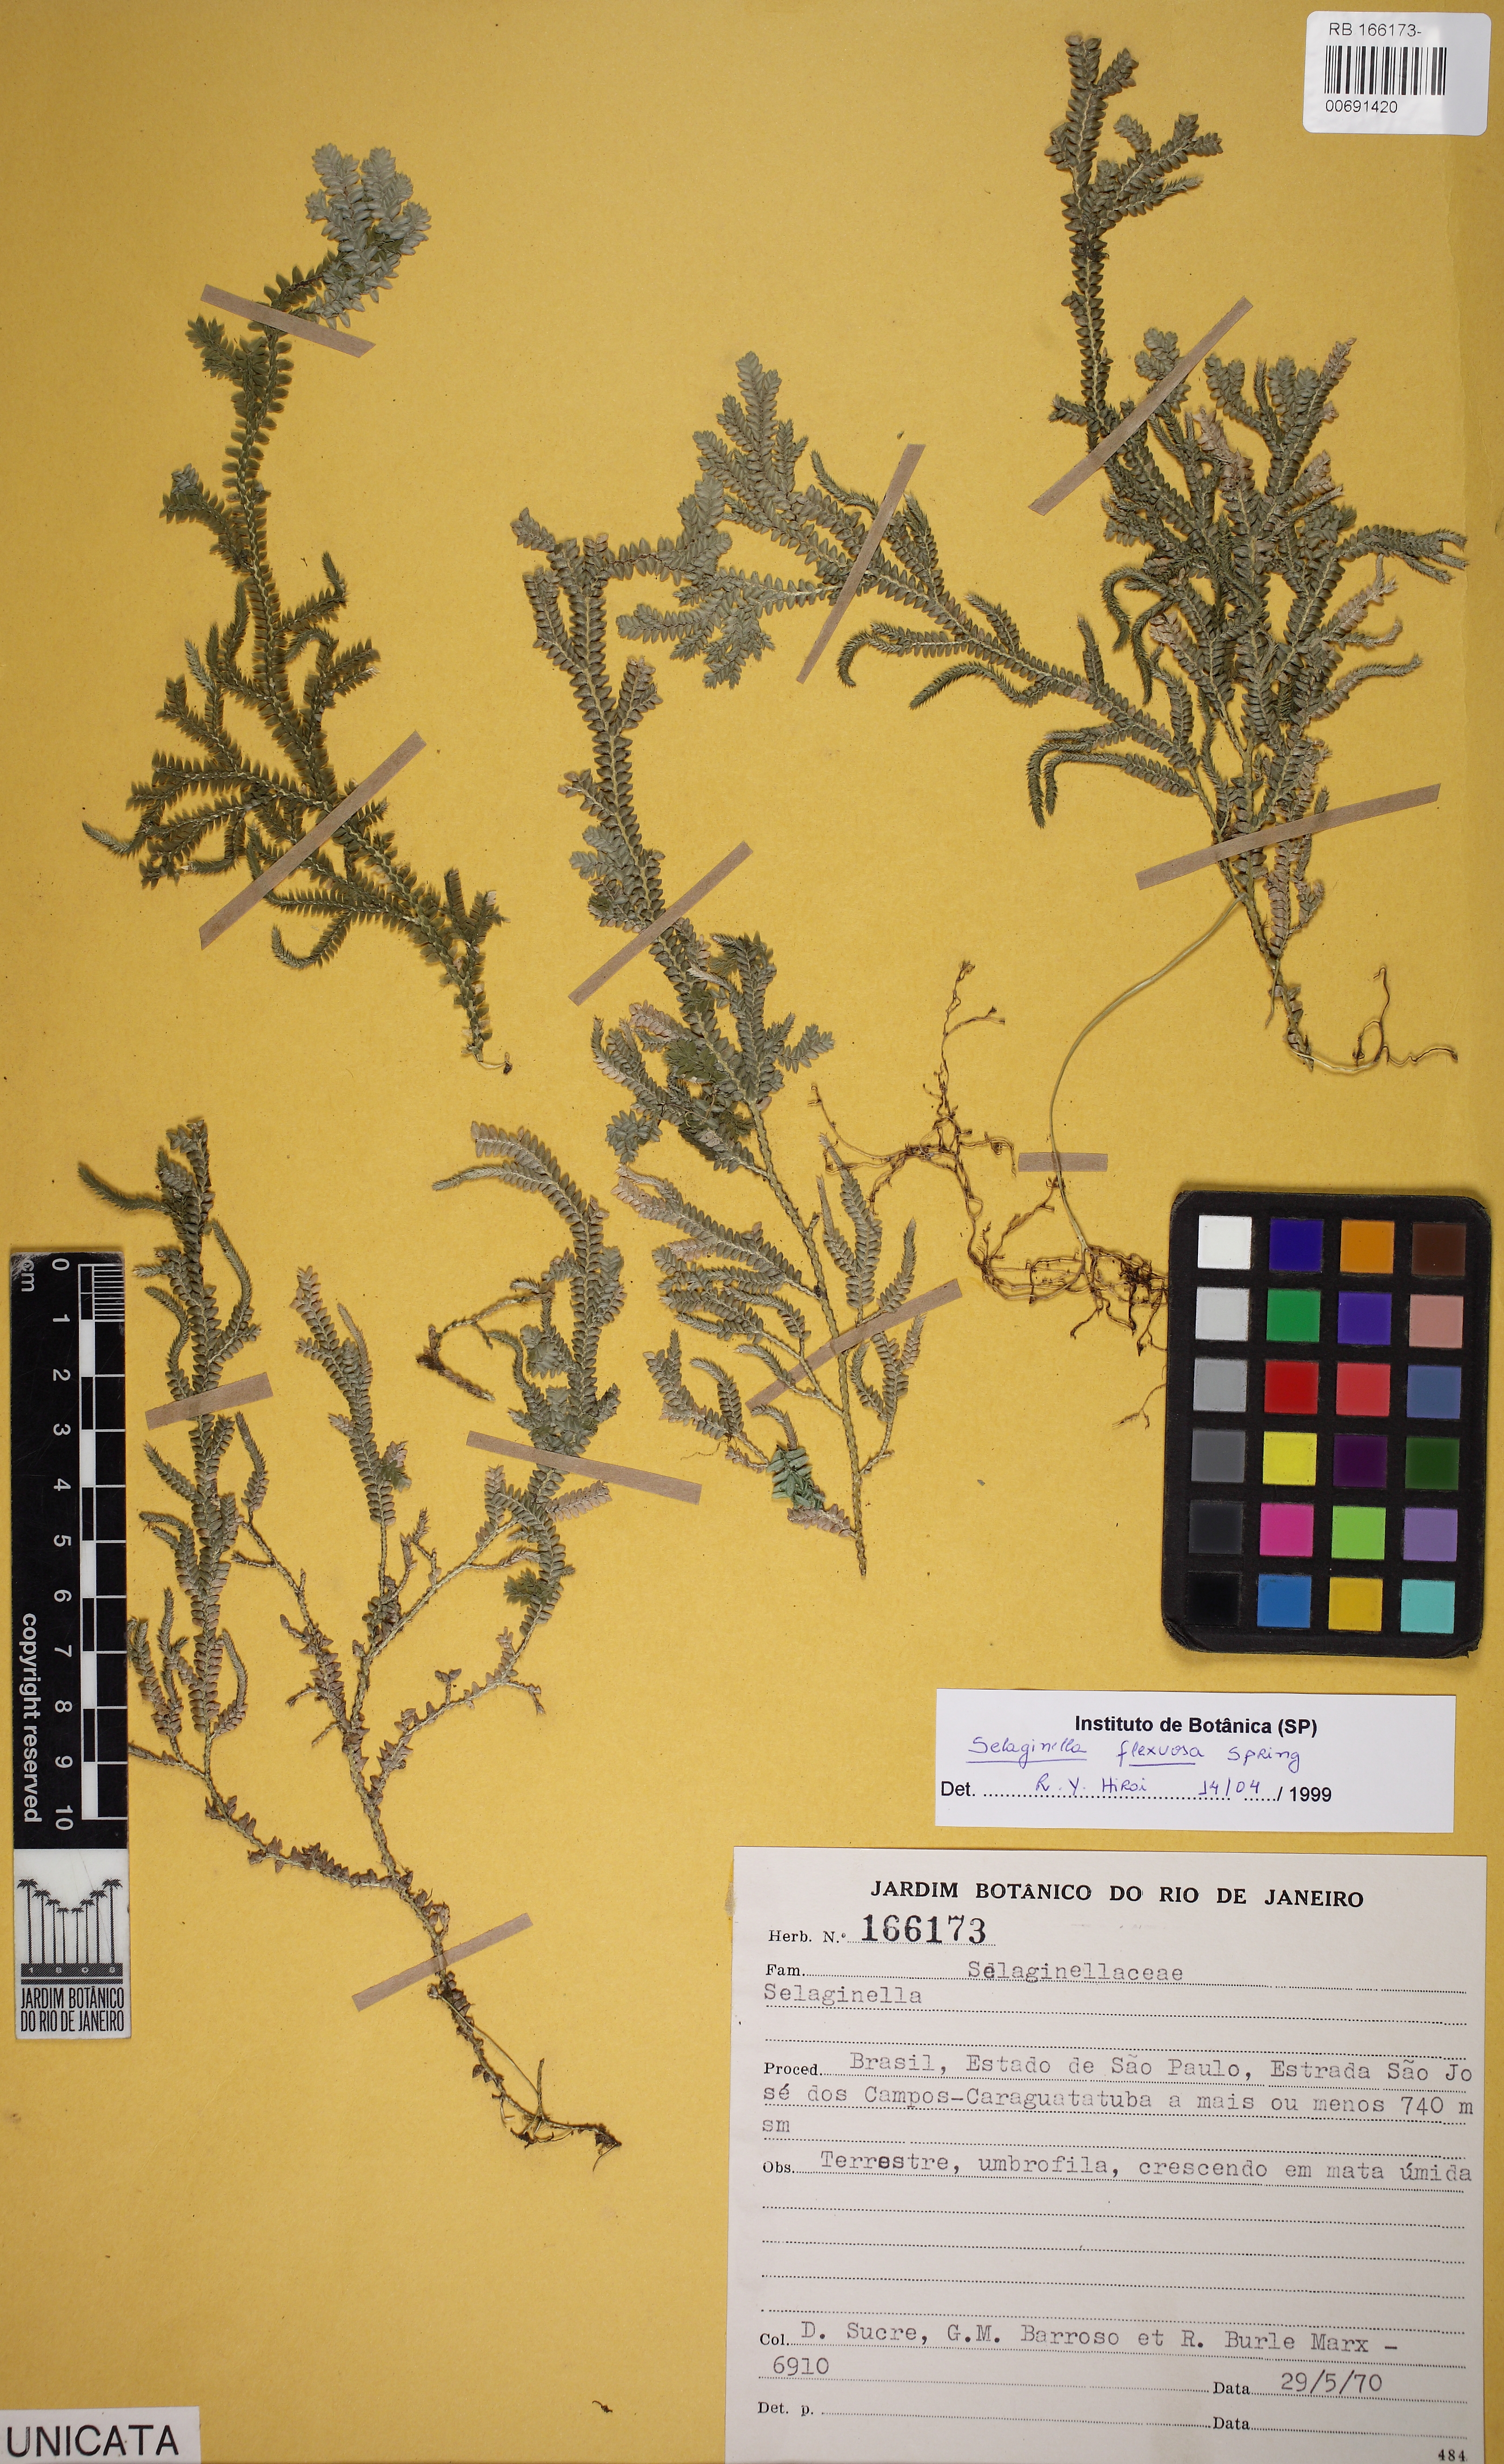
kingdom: Plantae
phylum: Tracheophyta
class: Lycopodiopsida
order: Selaginellales
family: Selaginellaceae
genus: Selaginella
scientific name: Selaginella flexuosa
